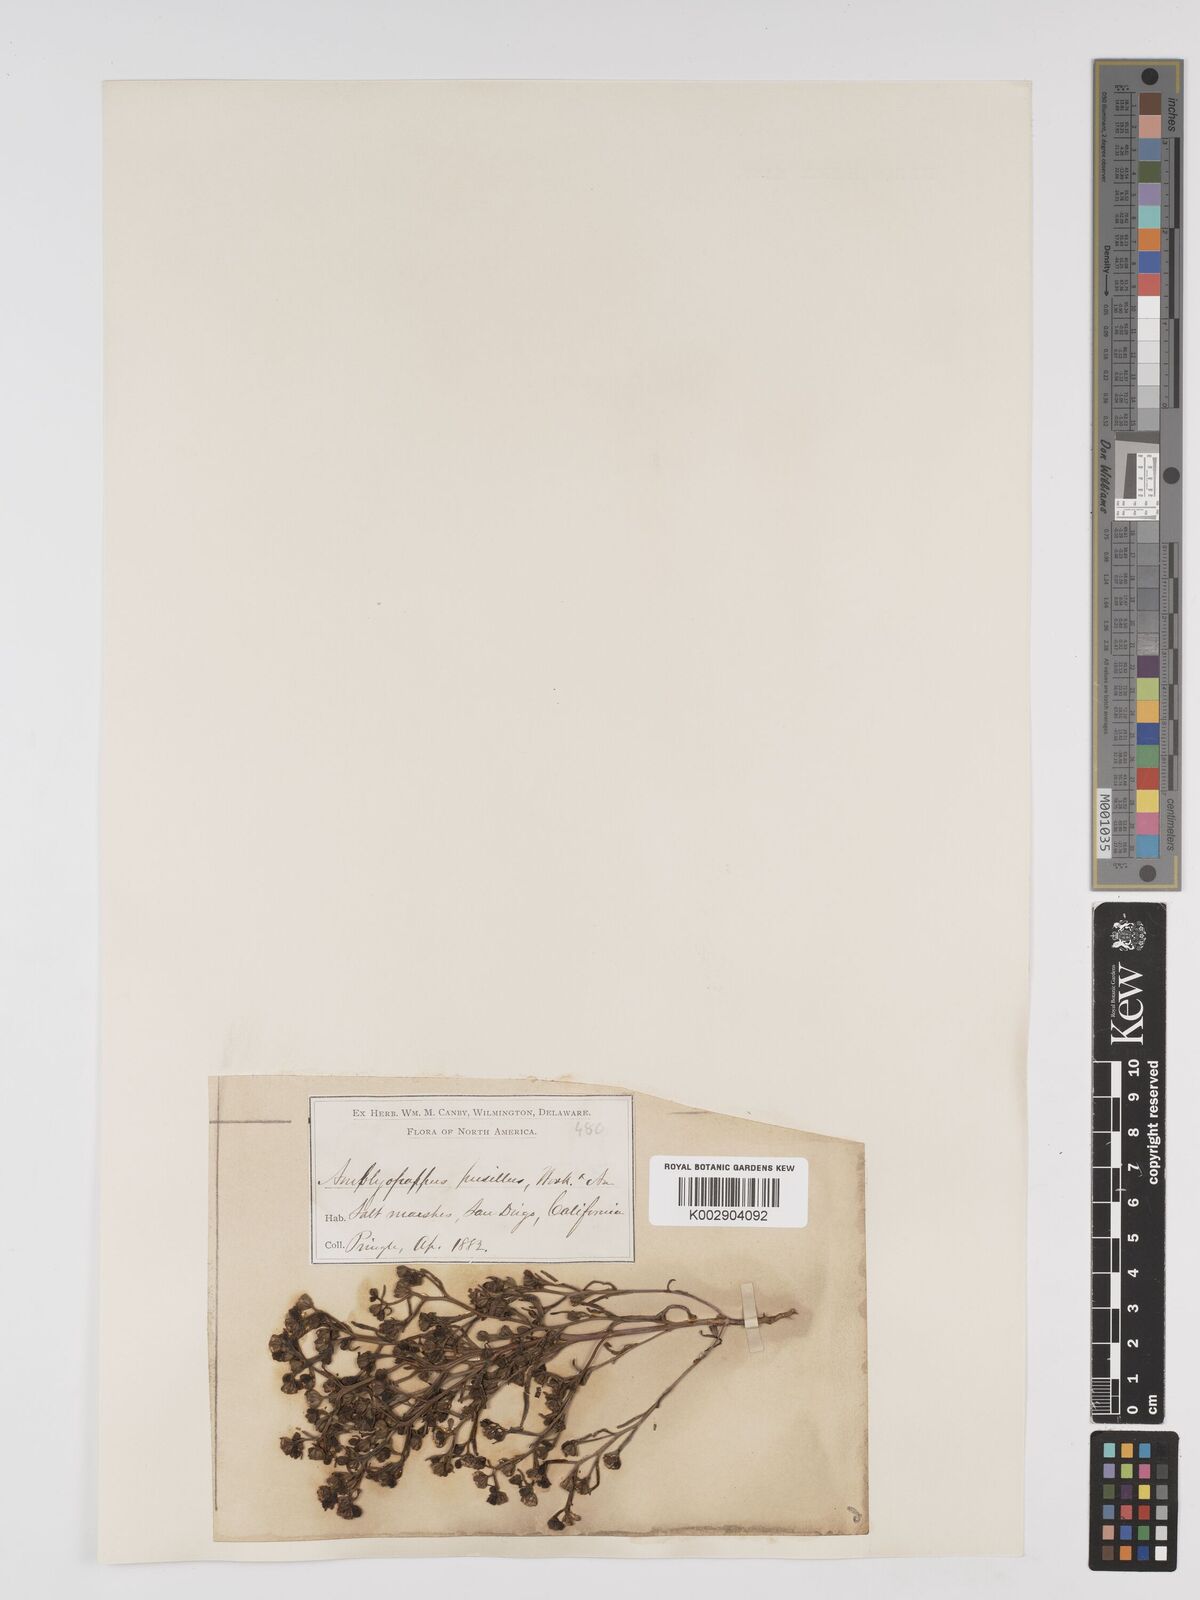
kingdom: Plantae
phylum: Tracheophyta
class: Magnoliopsida
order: Asterales
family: Asteraceae
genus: Amblyopappus
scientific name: Amblyopappus pusillus
